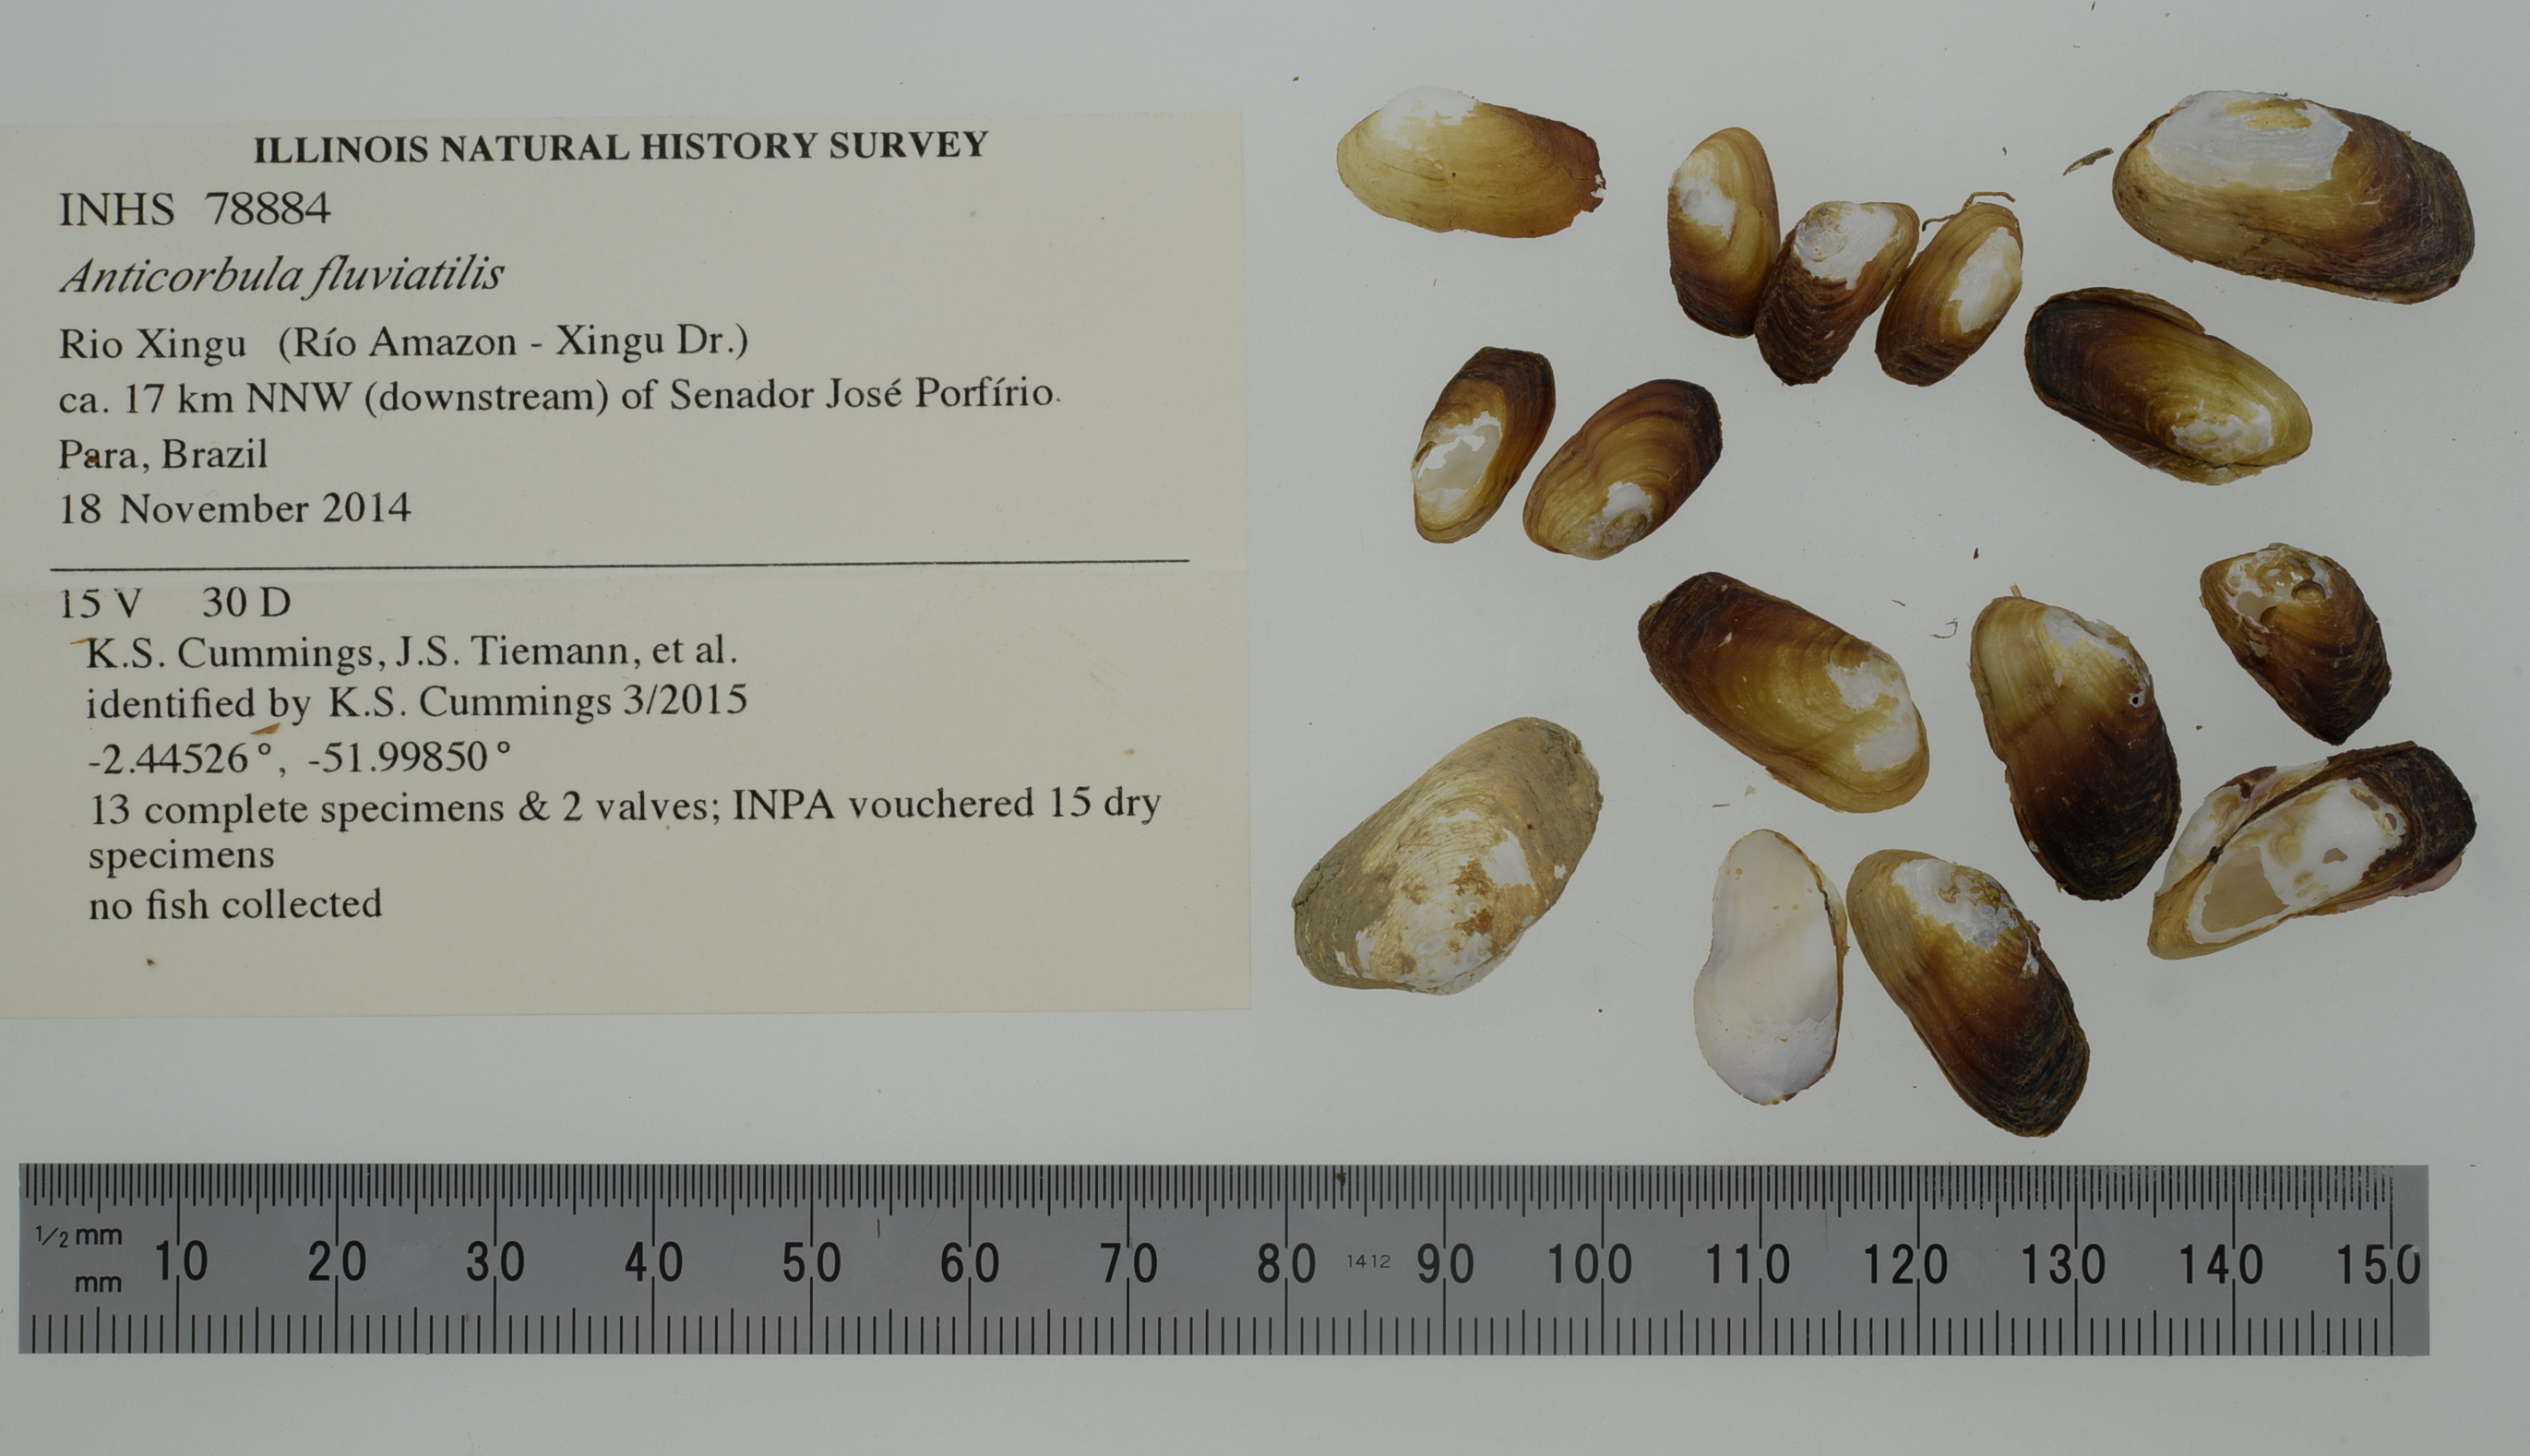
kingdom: Animalia
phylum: Mollusca
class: Bivalvia
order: Myida
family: Corbulidae
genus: Anticorbula
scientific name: Anticorbula fluviatilis
